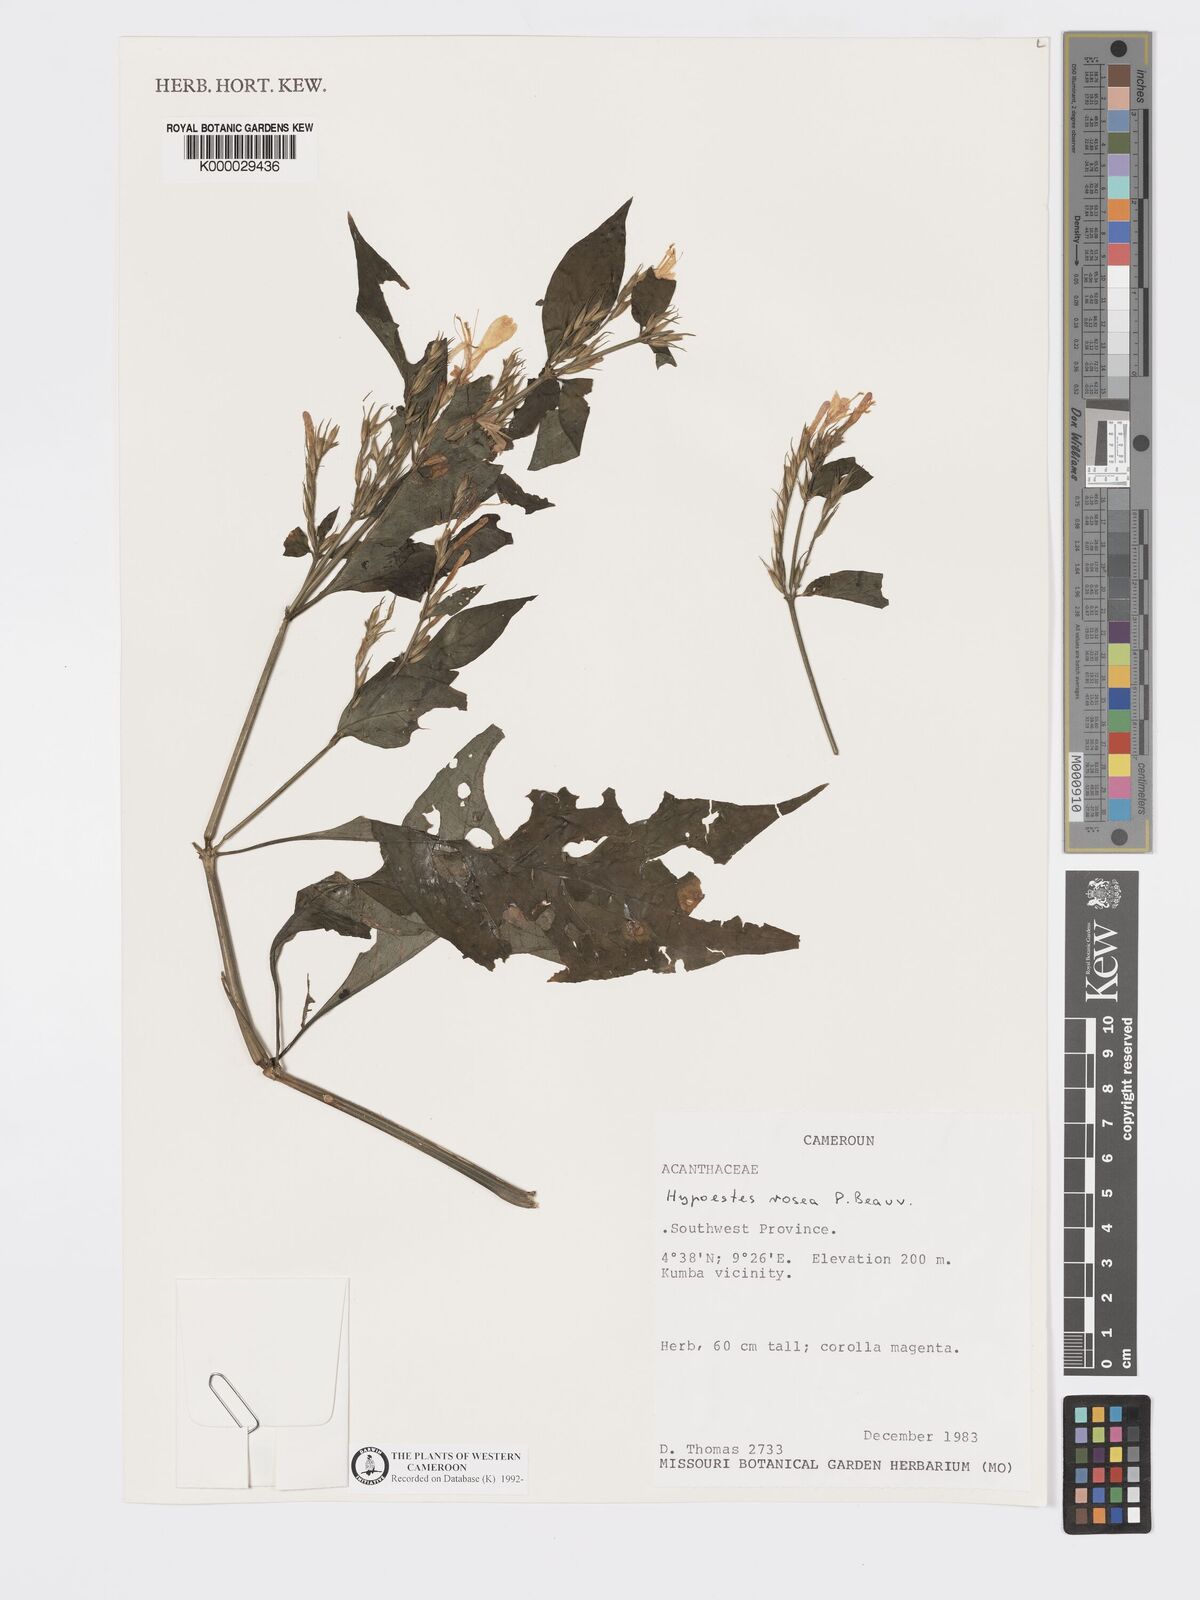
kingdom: Plantae
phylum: Tracheophyta
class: Magnoliopsida
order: Lamiales
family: Acanthaceae
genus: Hypoestes
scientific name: Hypoestes rosea
